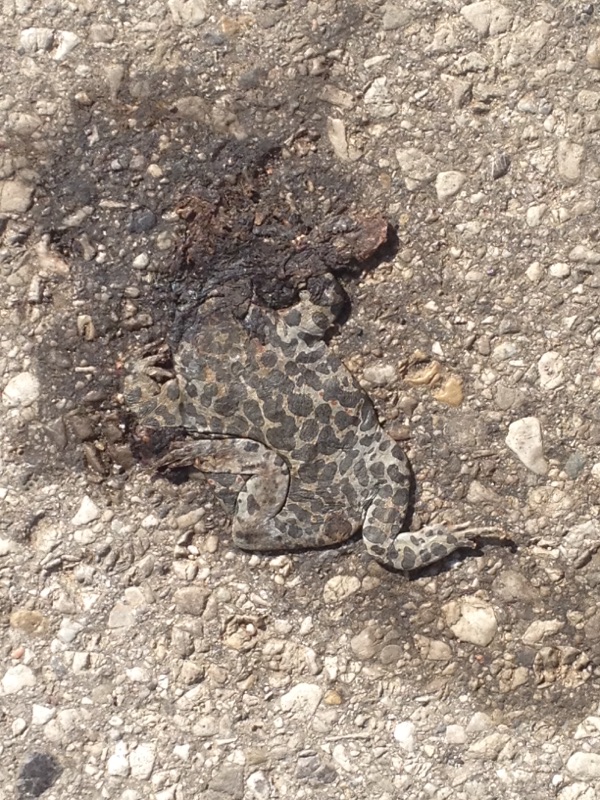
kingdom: Animalia
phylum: Chordata
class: Amphibia
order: Anura
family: Bufonidae
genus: Bufotes
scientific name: Bufotes viridis
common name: European green toad
